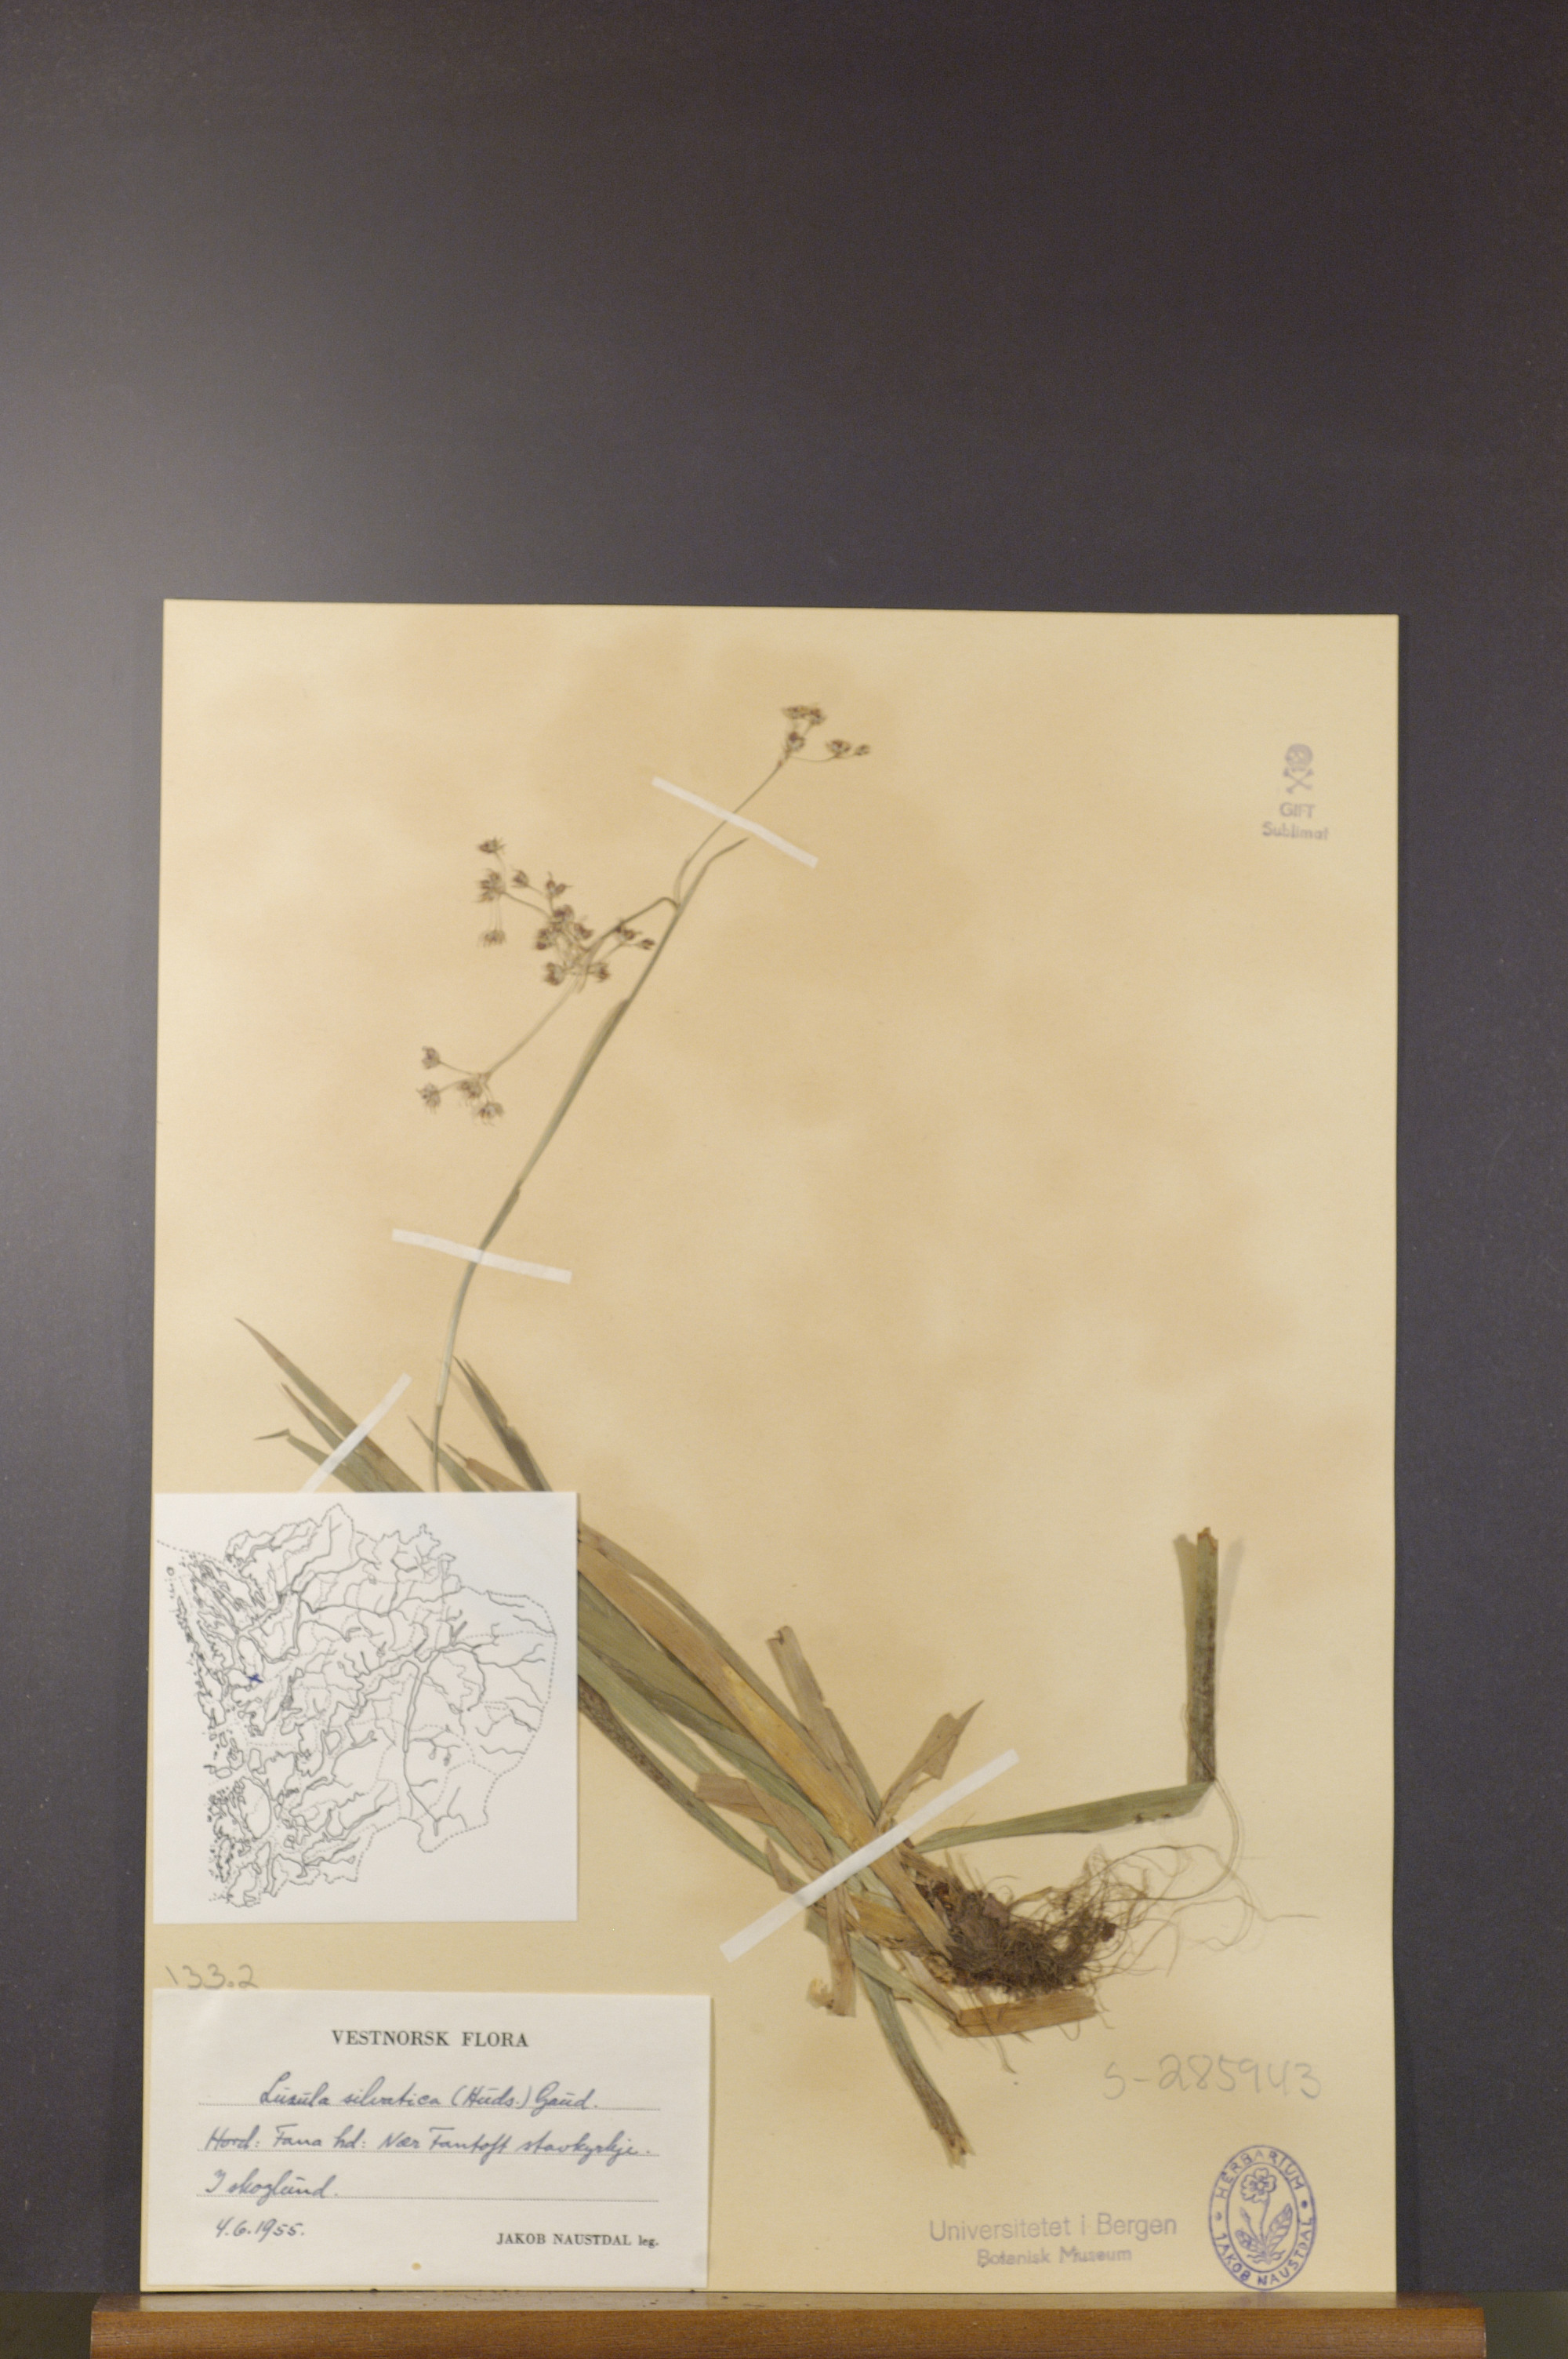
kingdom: Plantae
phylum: Tracheophyta
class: Liliopsida
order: Poales
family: Juncaceae
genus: Luzula
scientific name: Luzula sylvatica
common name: Great wood-rush
